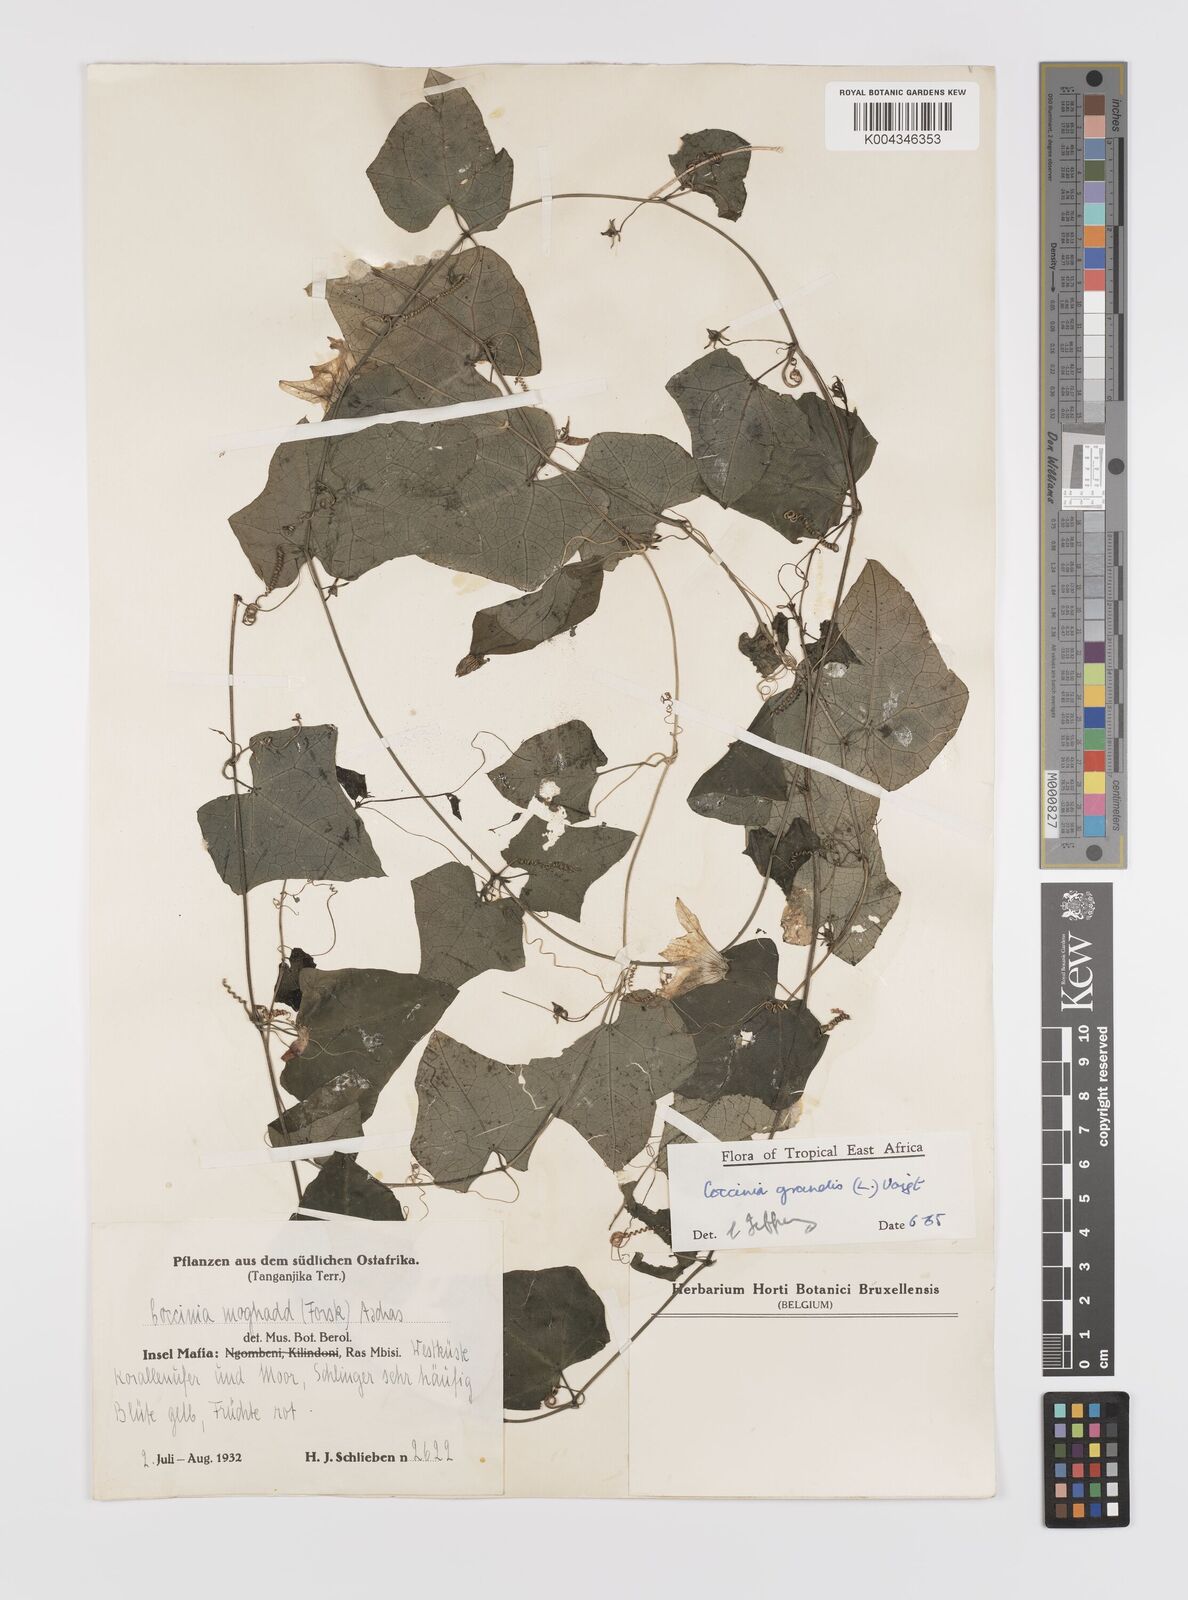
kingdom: Plantae
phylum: Tracheophyta
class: Magnoliopsida
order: Cucurbitales
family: Cucurbitaceae
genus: Coccinia
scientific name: Coccinia grandis
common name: Ivy gourd
